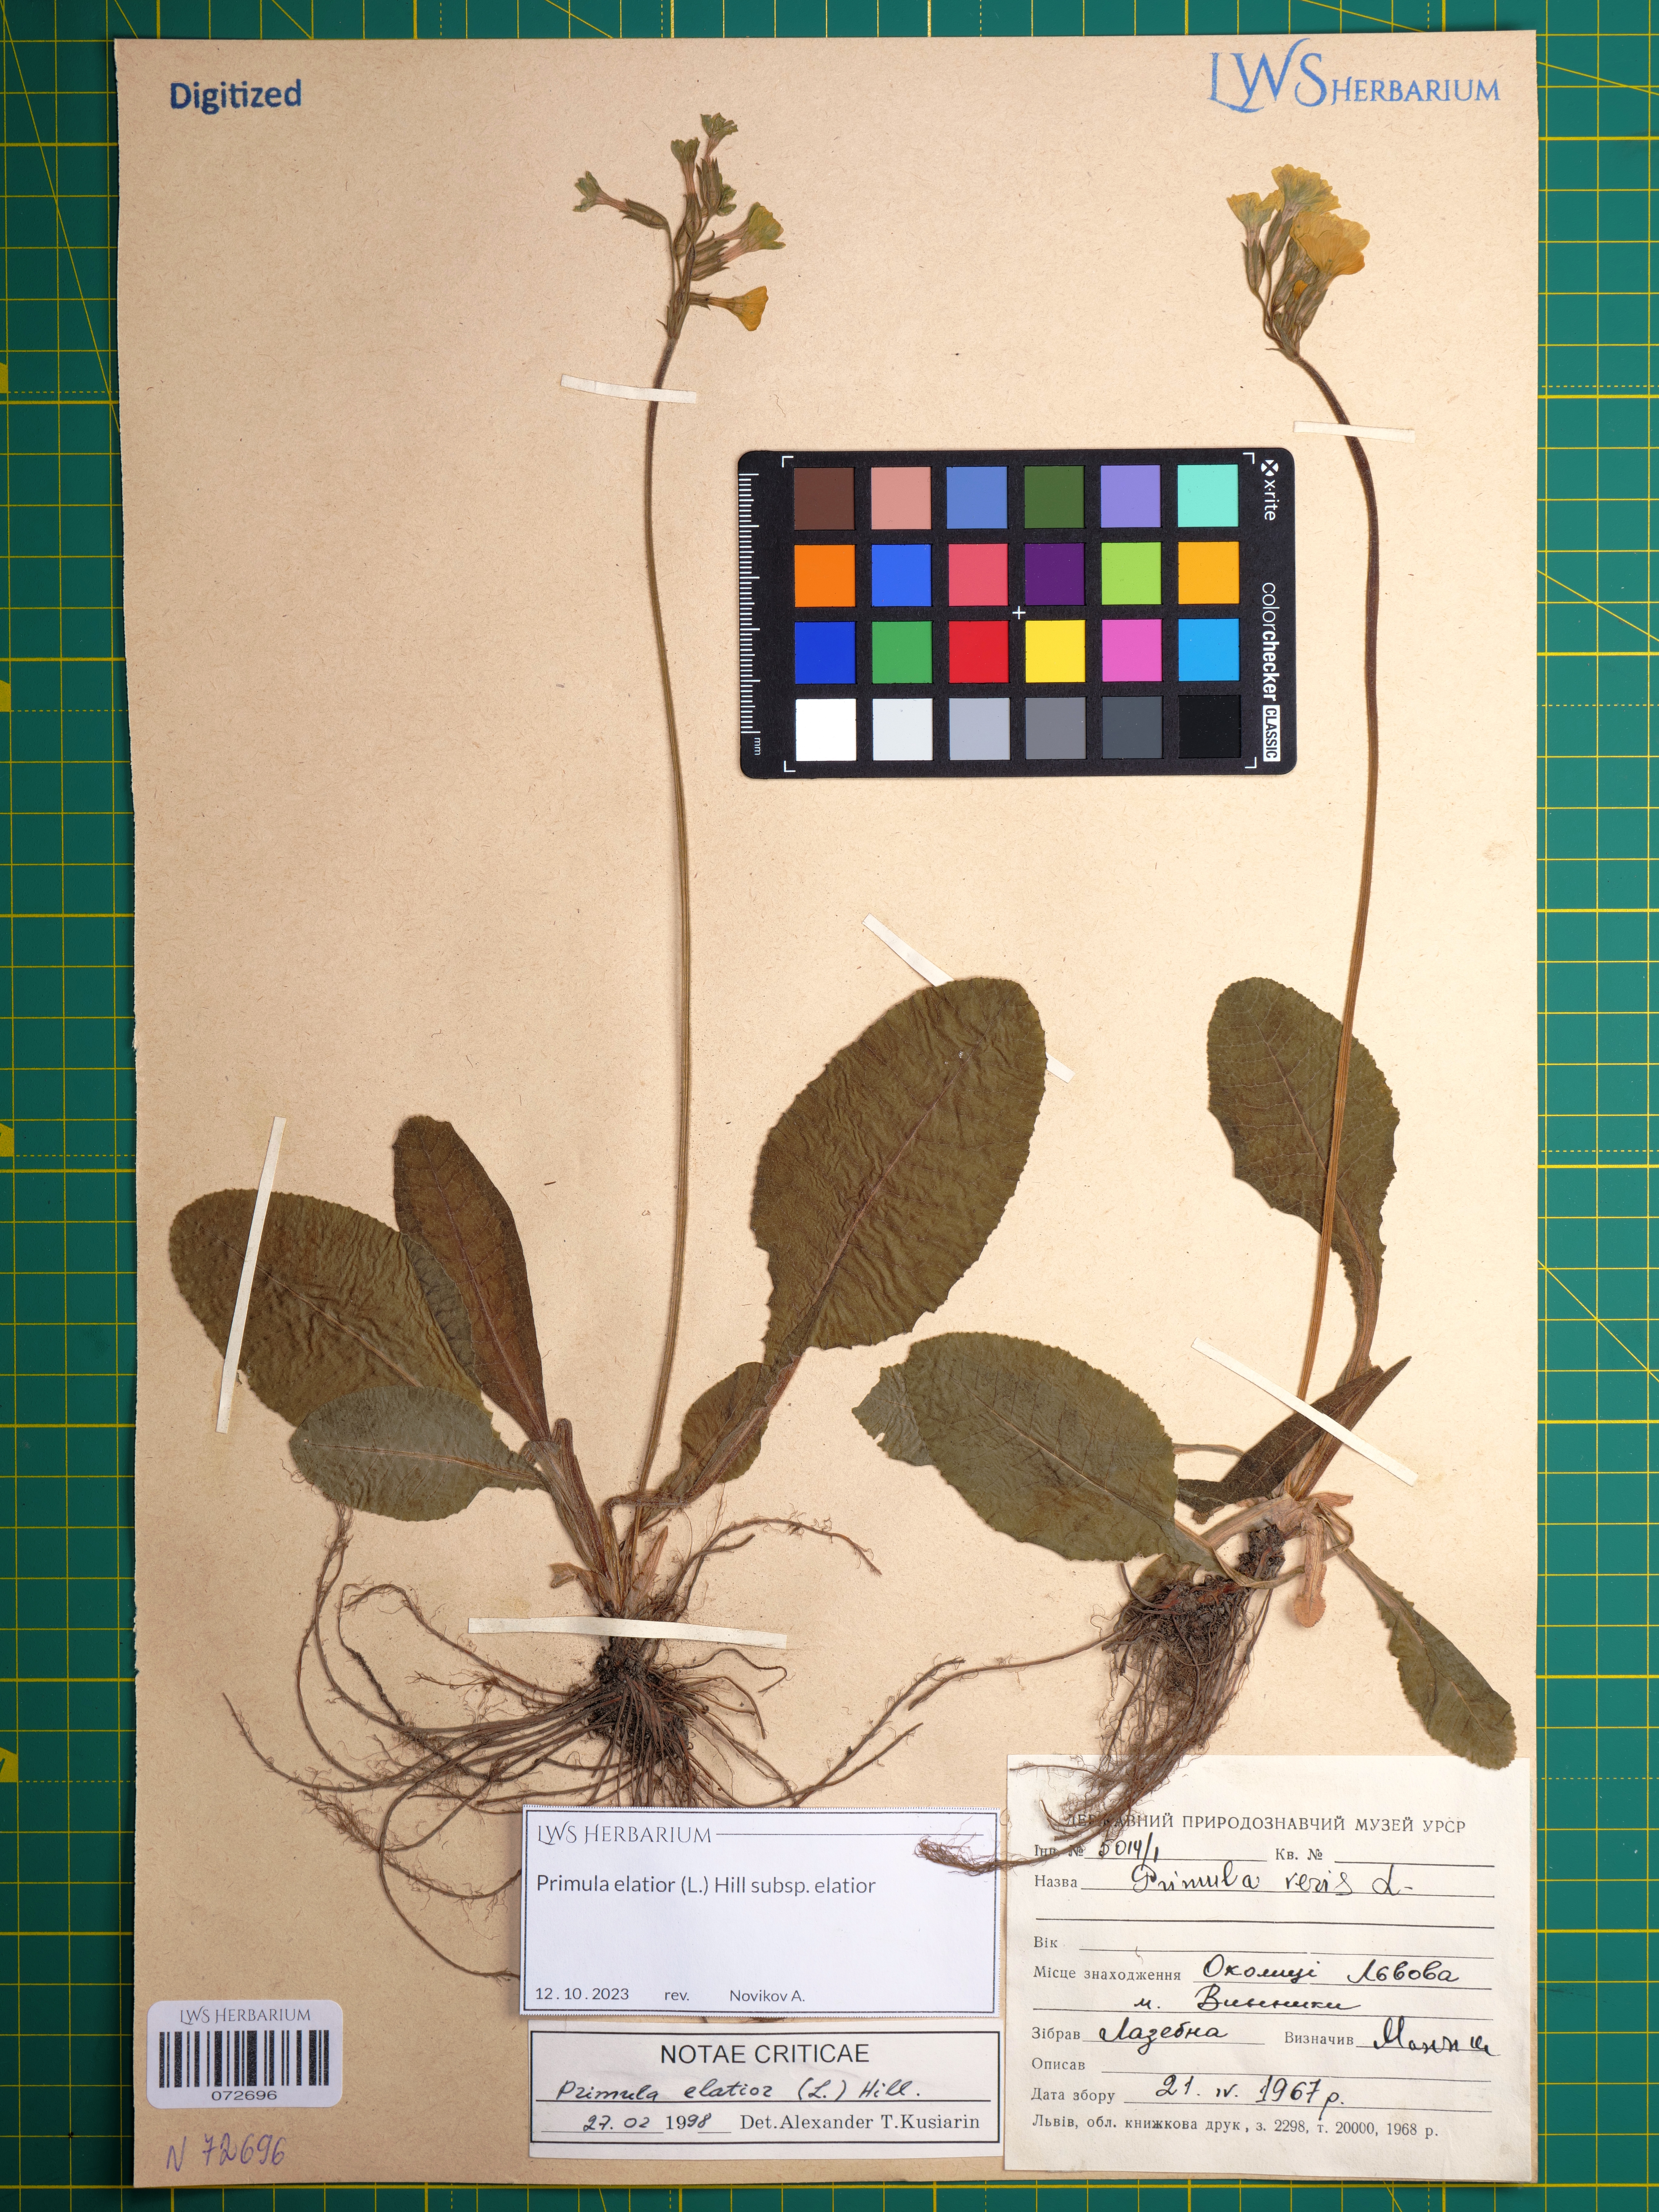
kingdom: Plantae
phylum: Tracheophyta
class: Magnoliopsida
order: Ericales
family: Primulaceae
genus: Primula
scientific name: Primula elatior
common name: Oxlip
